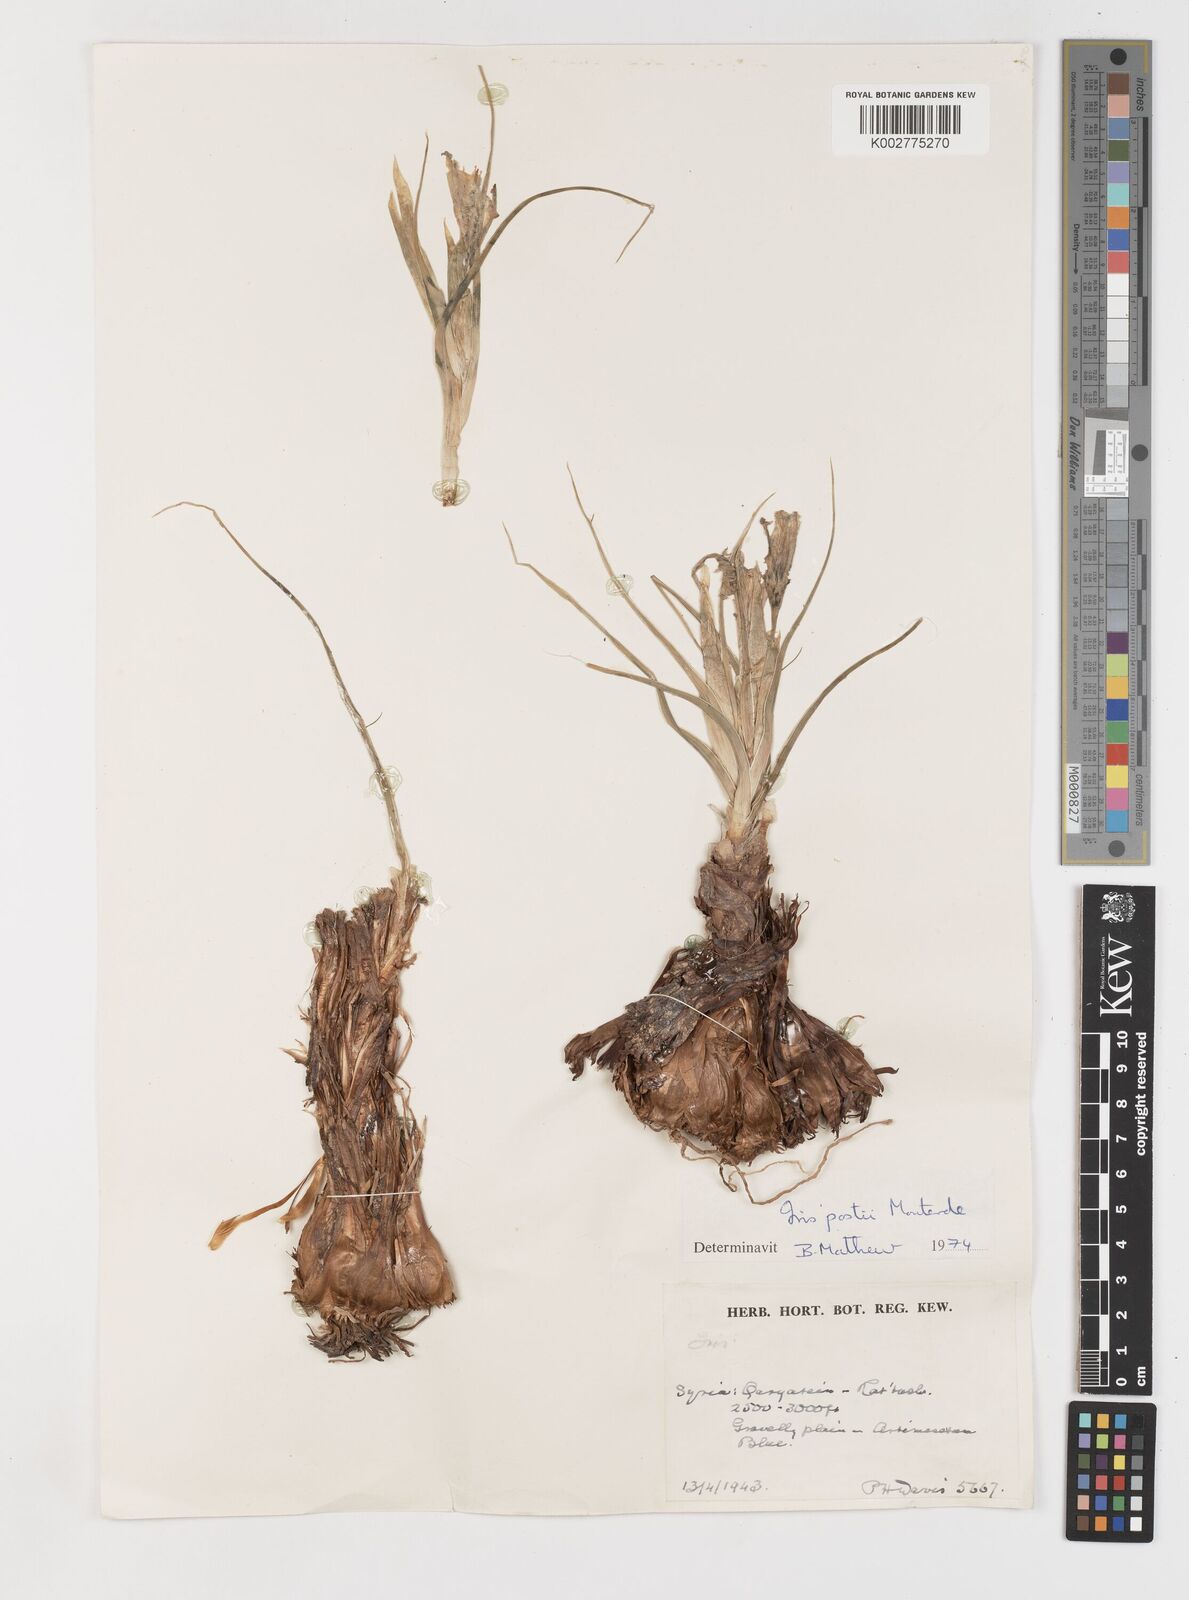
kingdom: Plantae
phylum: Tracheophyta
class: Liliopsida
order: Asparagales
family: Iridaceae
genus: Iris
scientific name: Iris postii
